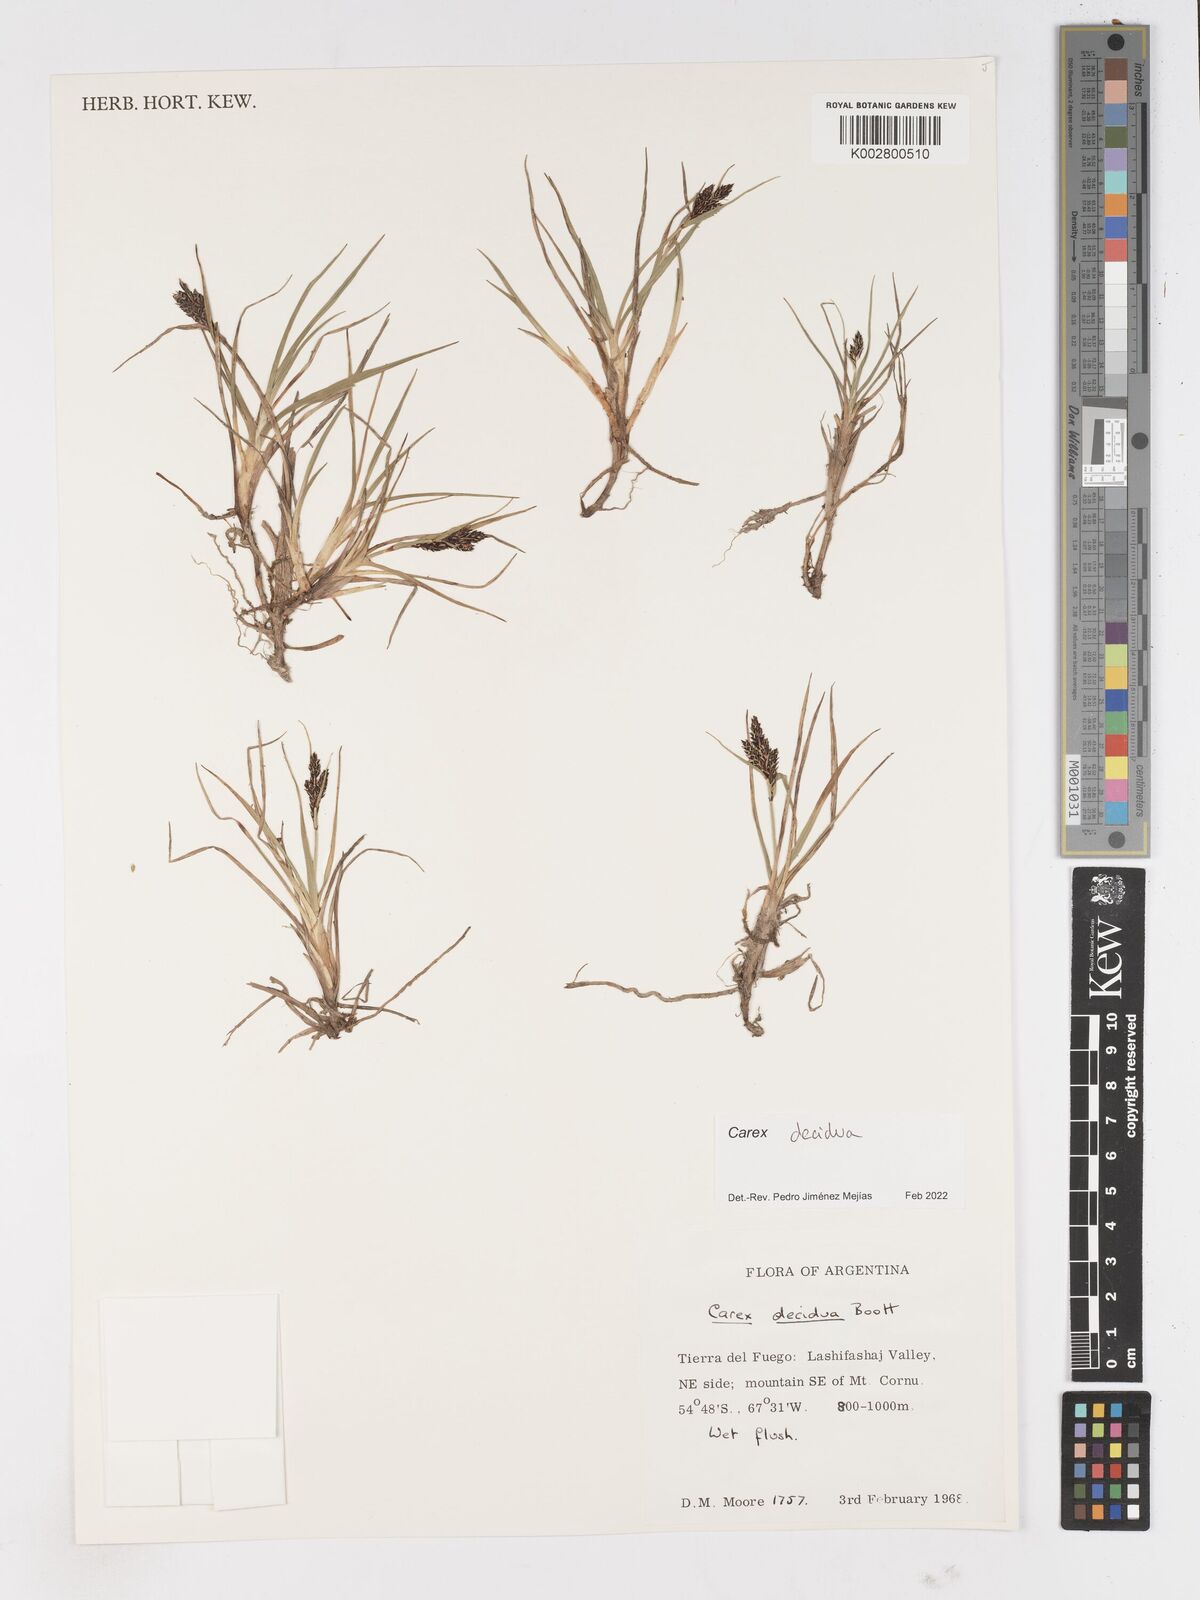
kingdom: Plantae
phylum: Tracheophyta
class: Liliopsida
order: Poales
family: Cyperaceae
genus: Carex
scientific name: Carex decidua
